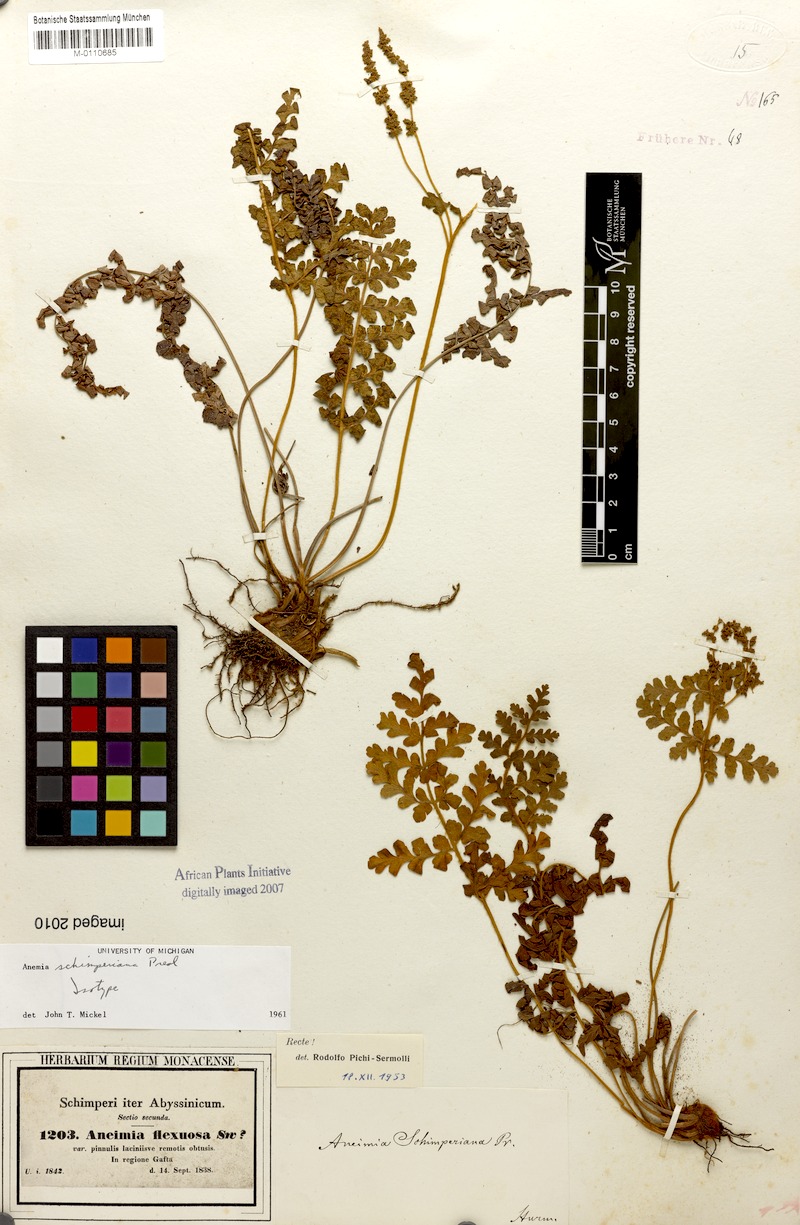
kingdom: Plantae
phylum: Tracheophyta
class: Polypodiopsida
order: Schizaeales
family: Anemiaceae
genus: Anemia
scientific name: Anemia schimperiana
